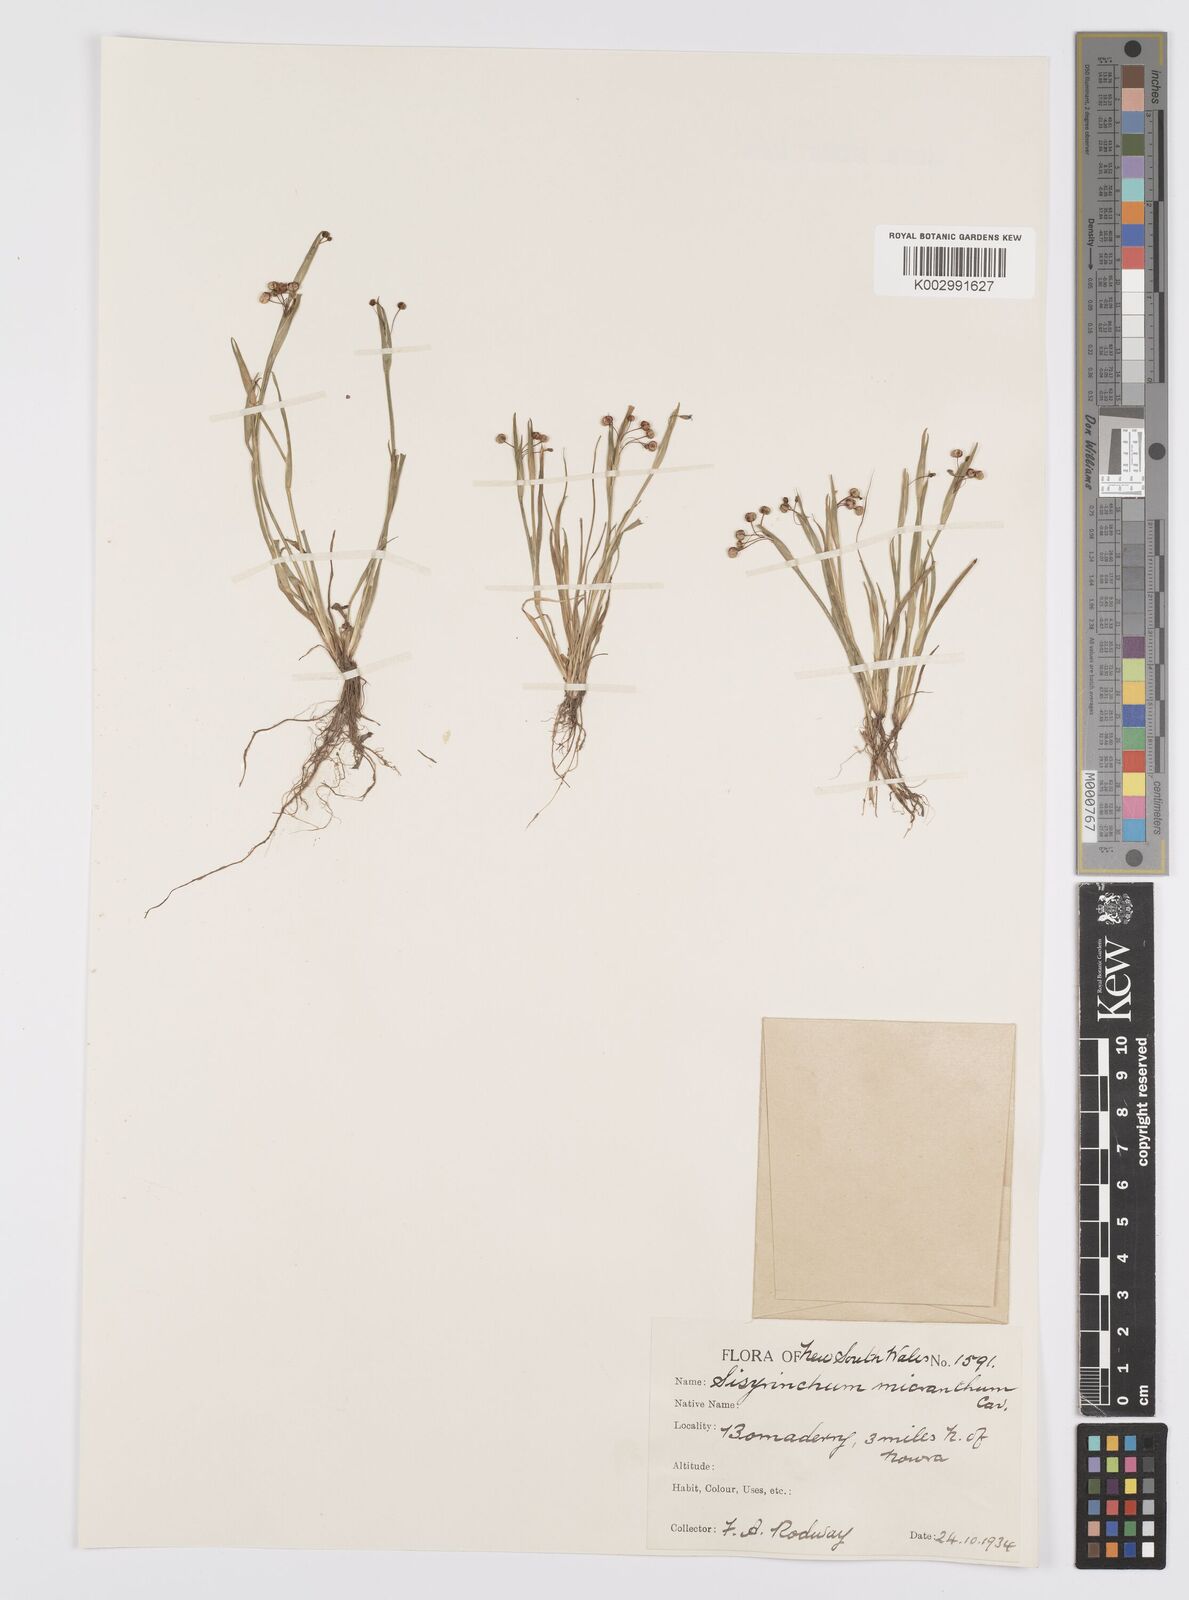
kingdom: Plantae
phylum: Tracheophyta
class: Liliopsida
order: Asparagales
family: Iridaceae
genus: Sisyrinchium
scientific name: Sisyrinchium micranthum
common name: Bermuda pigroot
